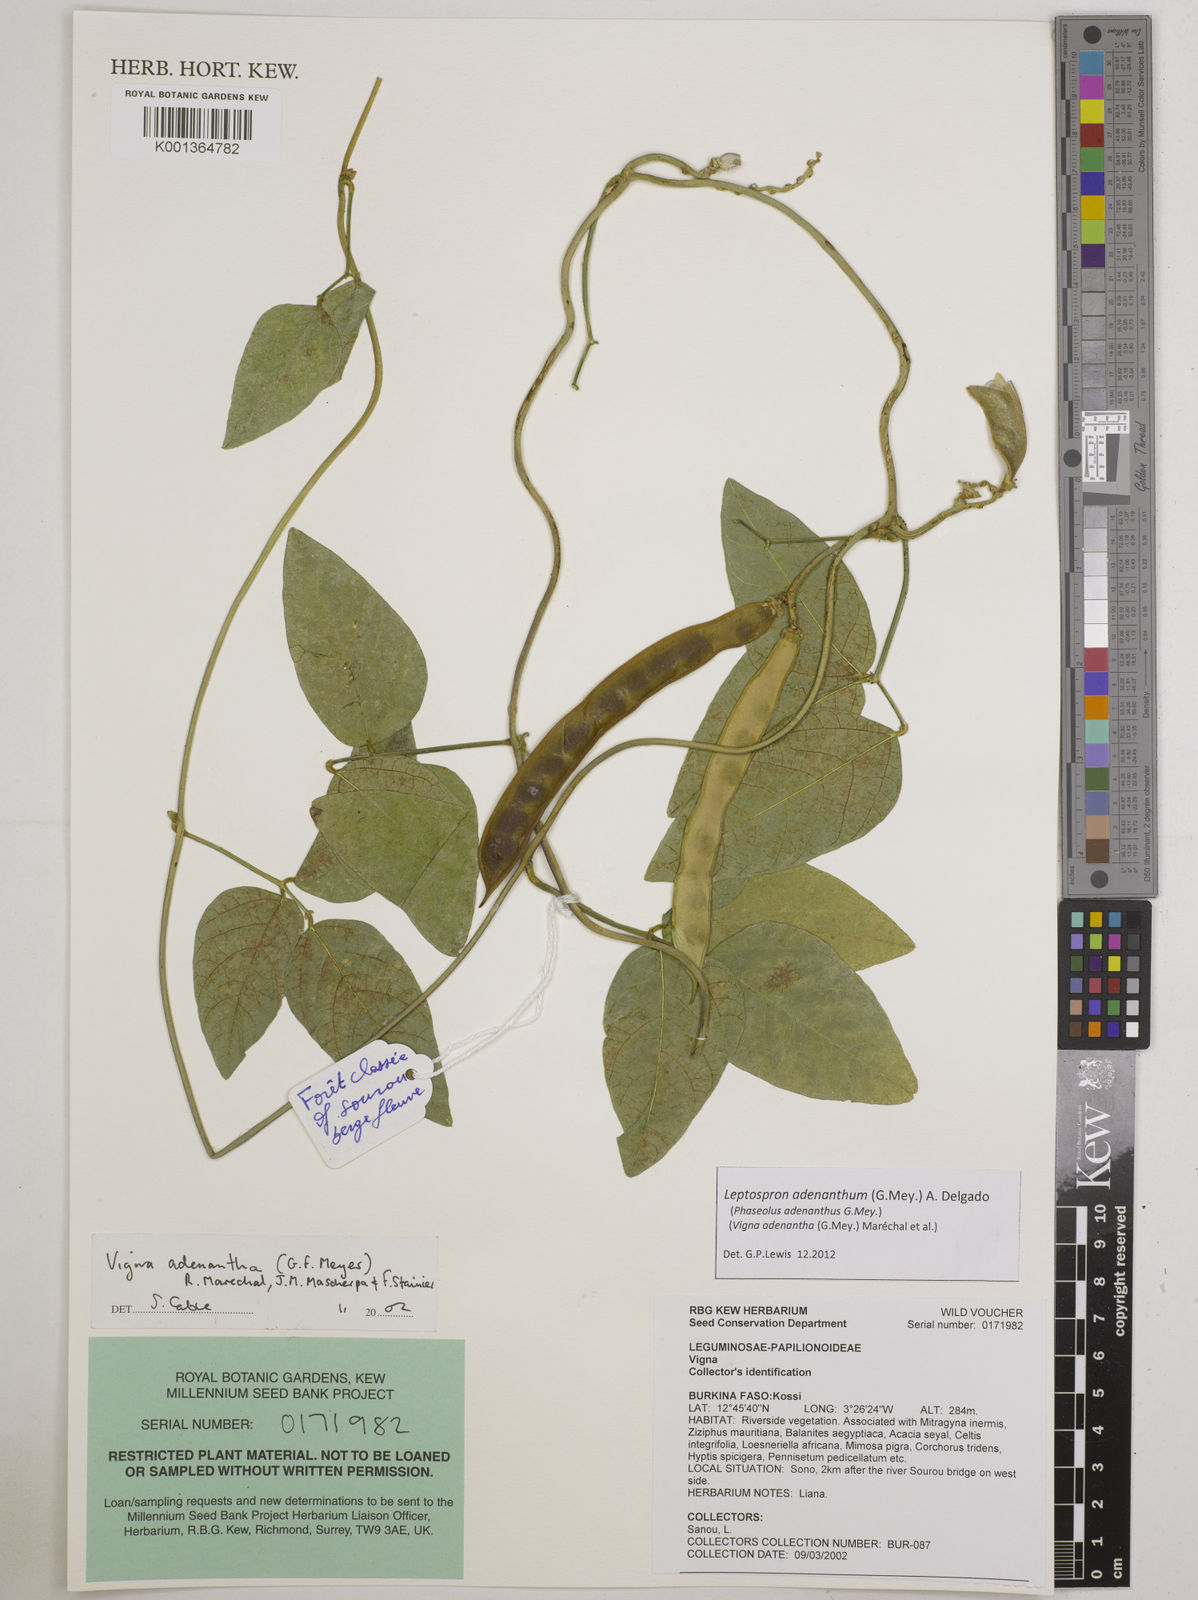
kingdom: Plantae
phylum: Tracheophyta
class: Magnoliopsida
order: Fabales
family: Fabaceae
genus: Leptospron
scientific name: Leptospron adenanthum
